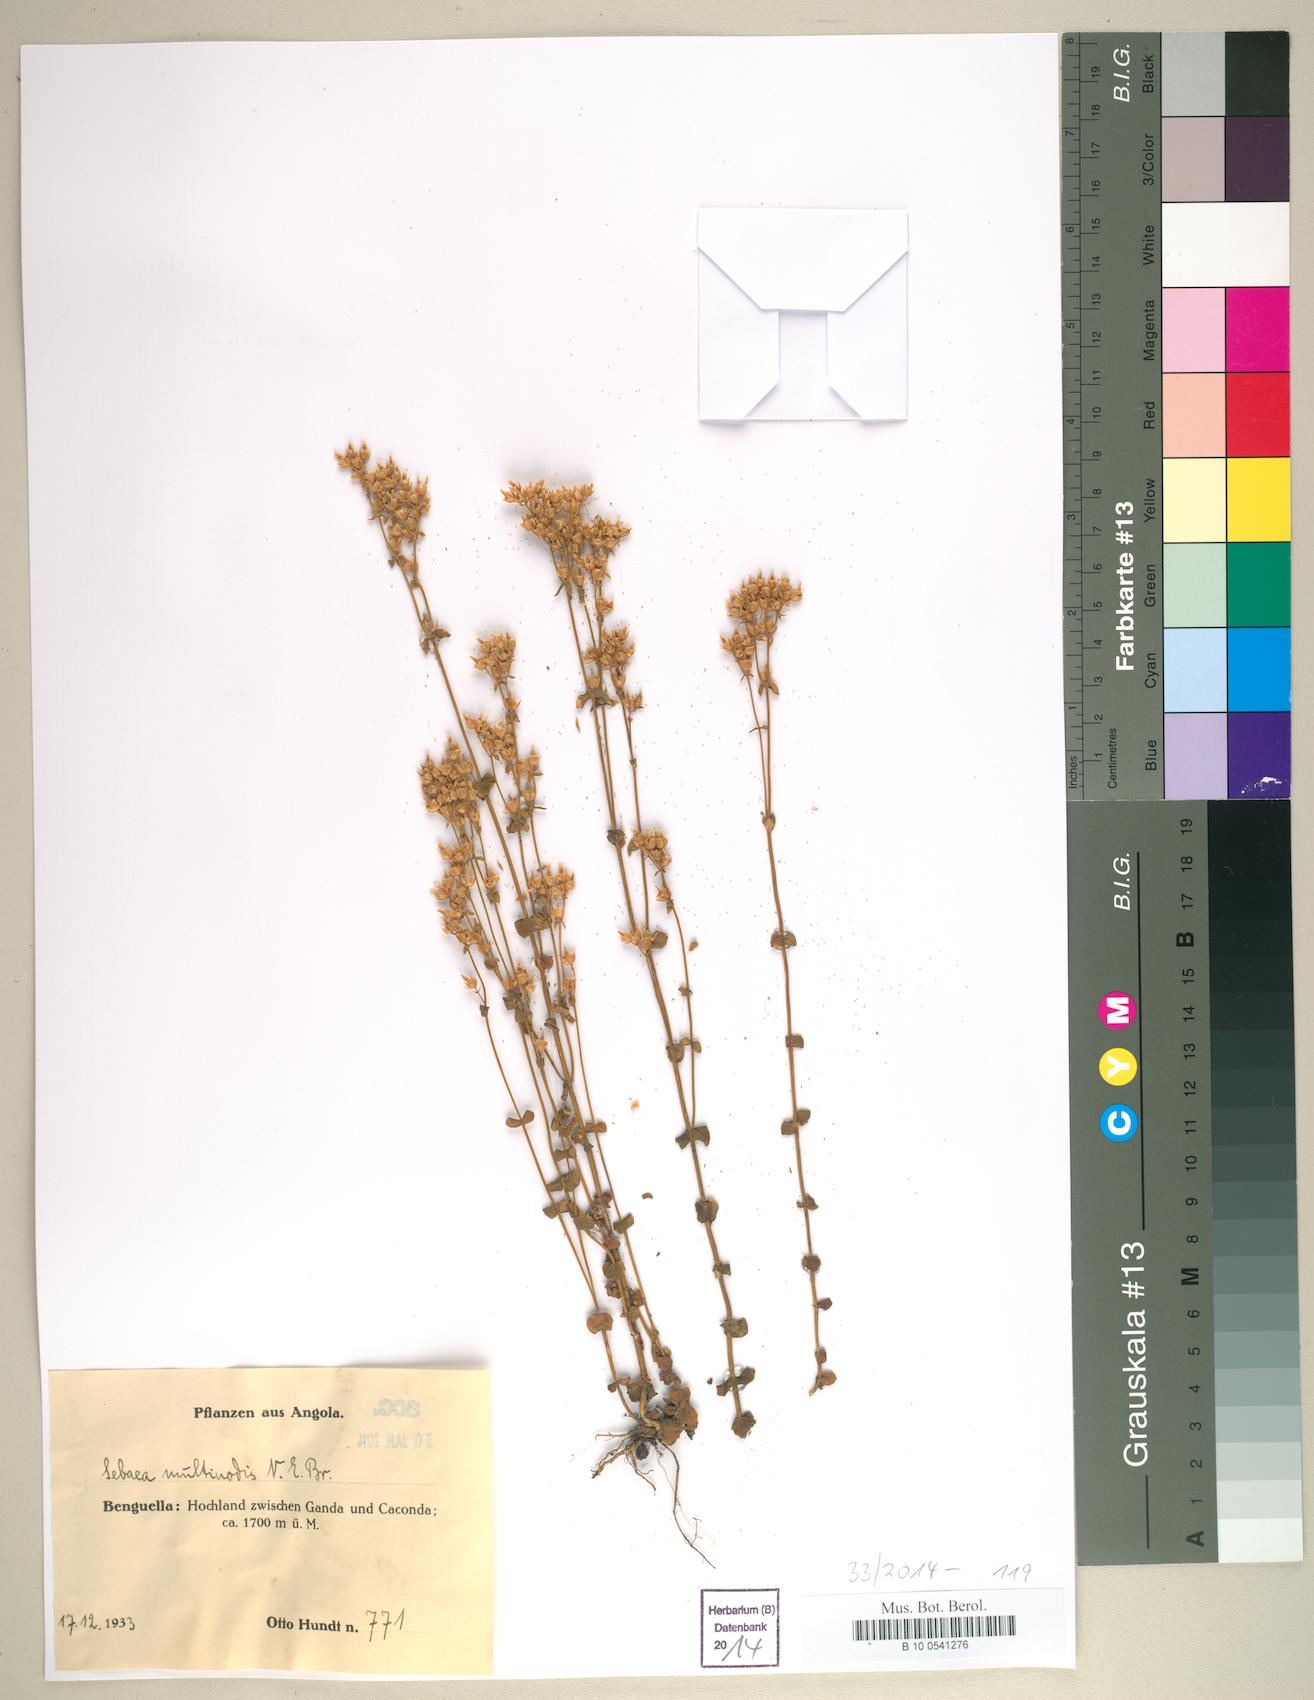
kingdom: Plantae
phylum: Tracheophyta
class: Magnoliopsida
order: Gentianales
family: Gentianaceae
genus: Sebaea
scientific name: Sebaea brachyphylla
